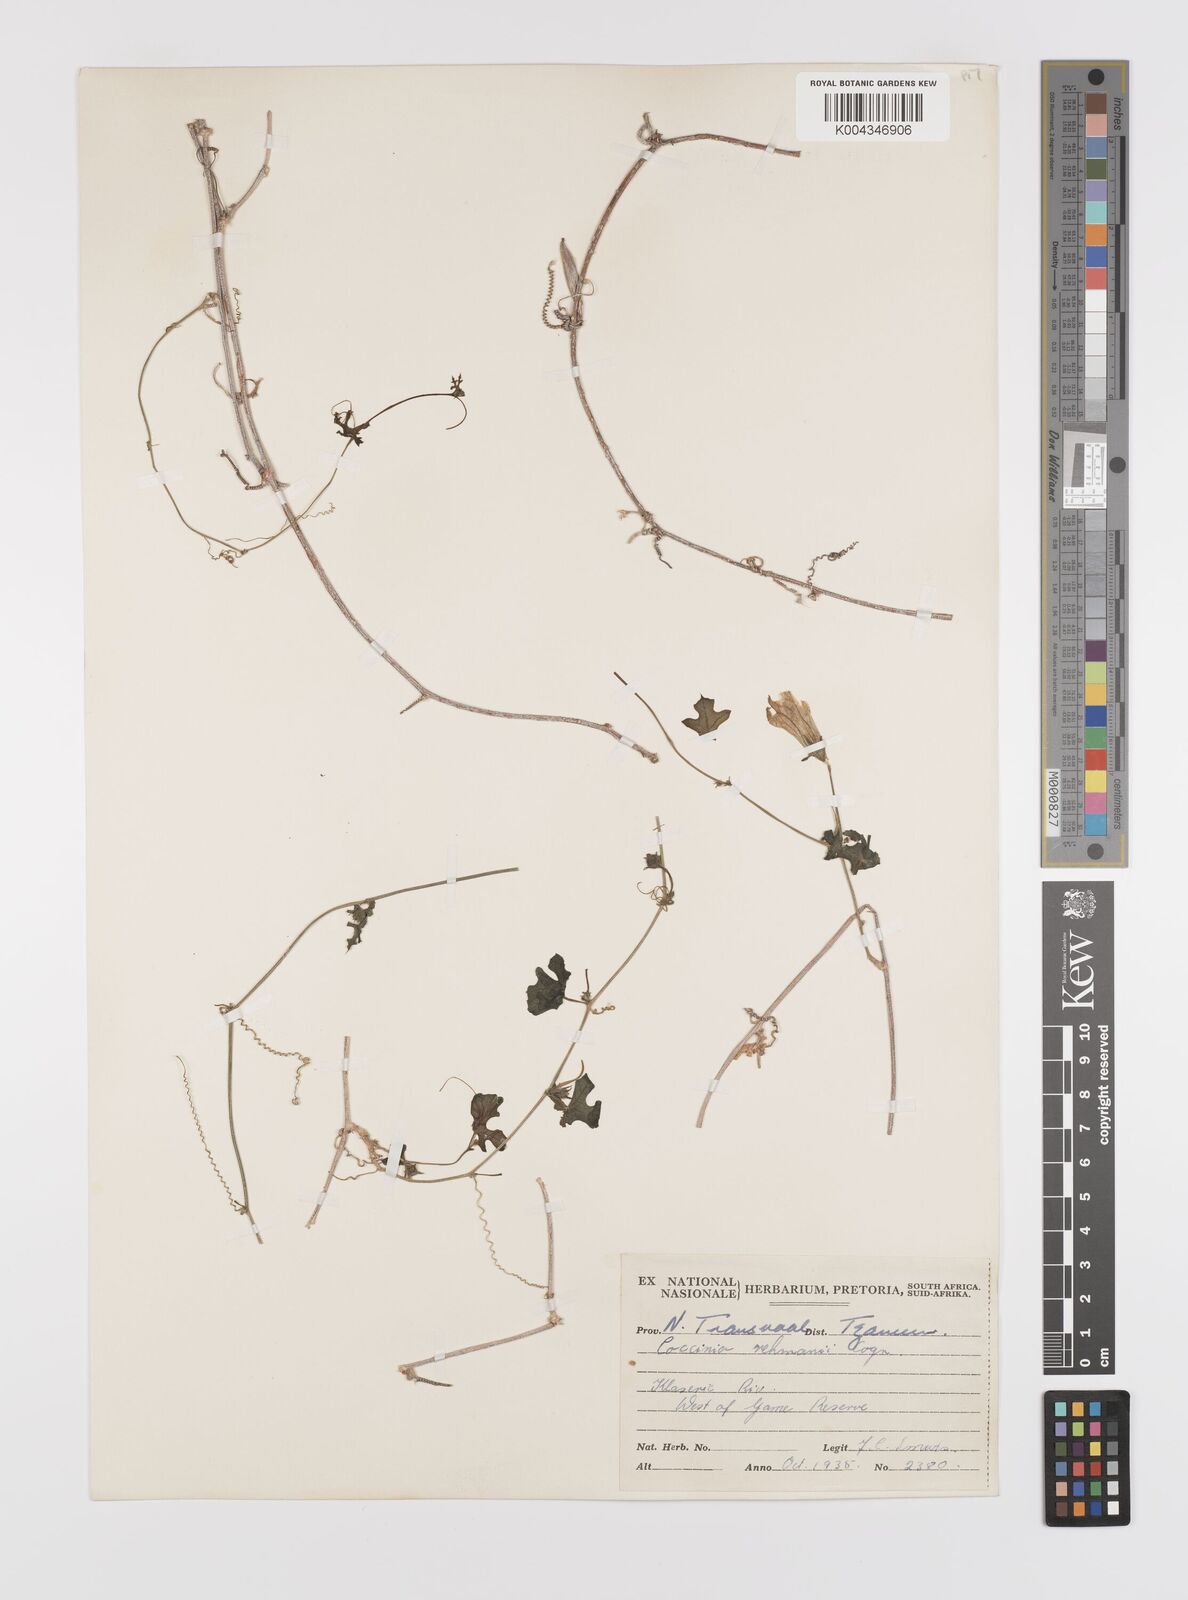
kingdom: Plantae
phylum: Tracheophyta
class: Magnoliopsida
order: Cucurbitales
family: Cucurbitaceae
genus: Coccinia
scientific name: Coccinia rehmannii
